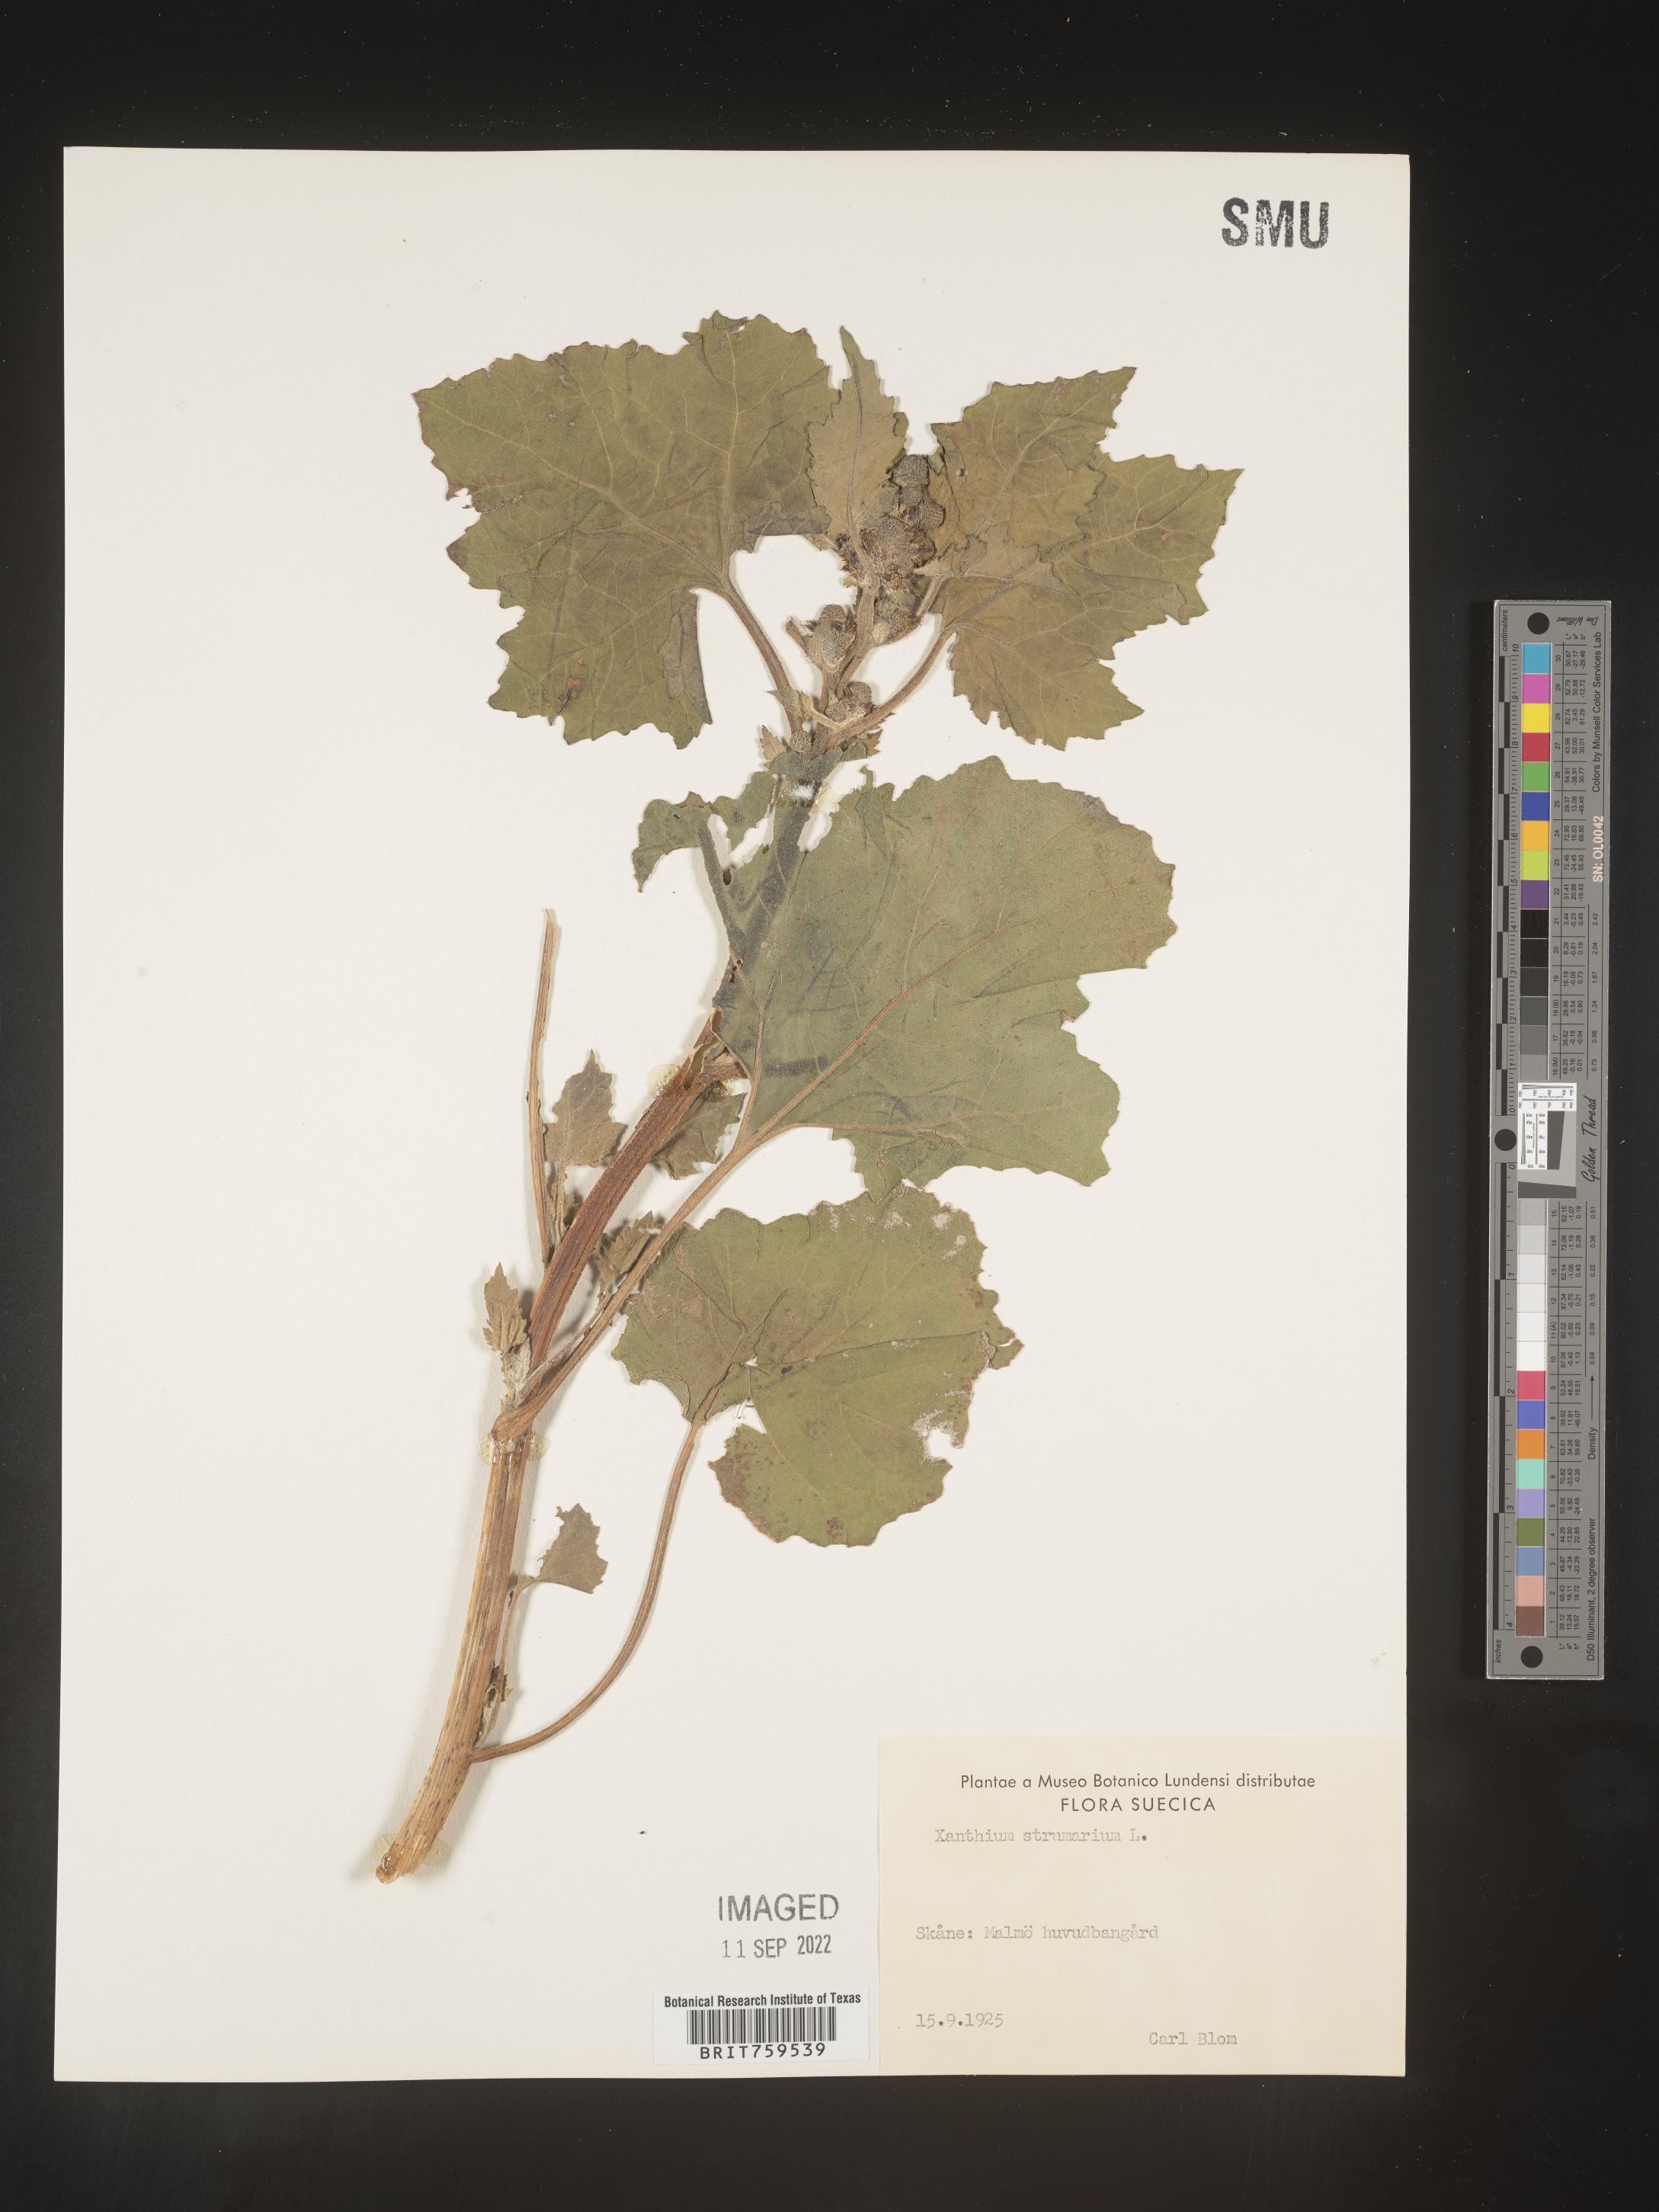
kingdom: Plantae
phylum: Tracheophyta
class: Magnoliopsida
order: Asterales
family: Asteraceae
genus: Xanthium
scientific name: Xanthium
